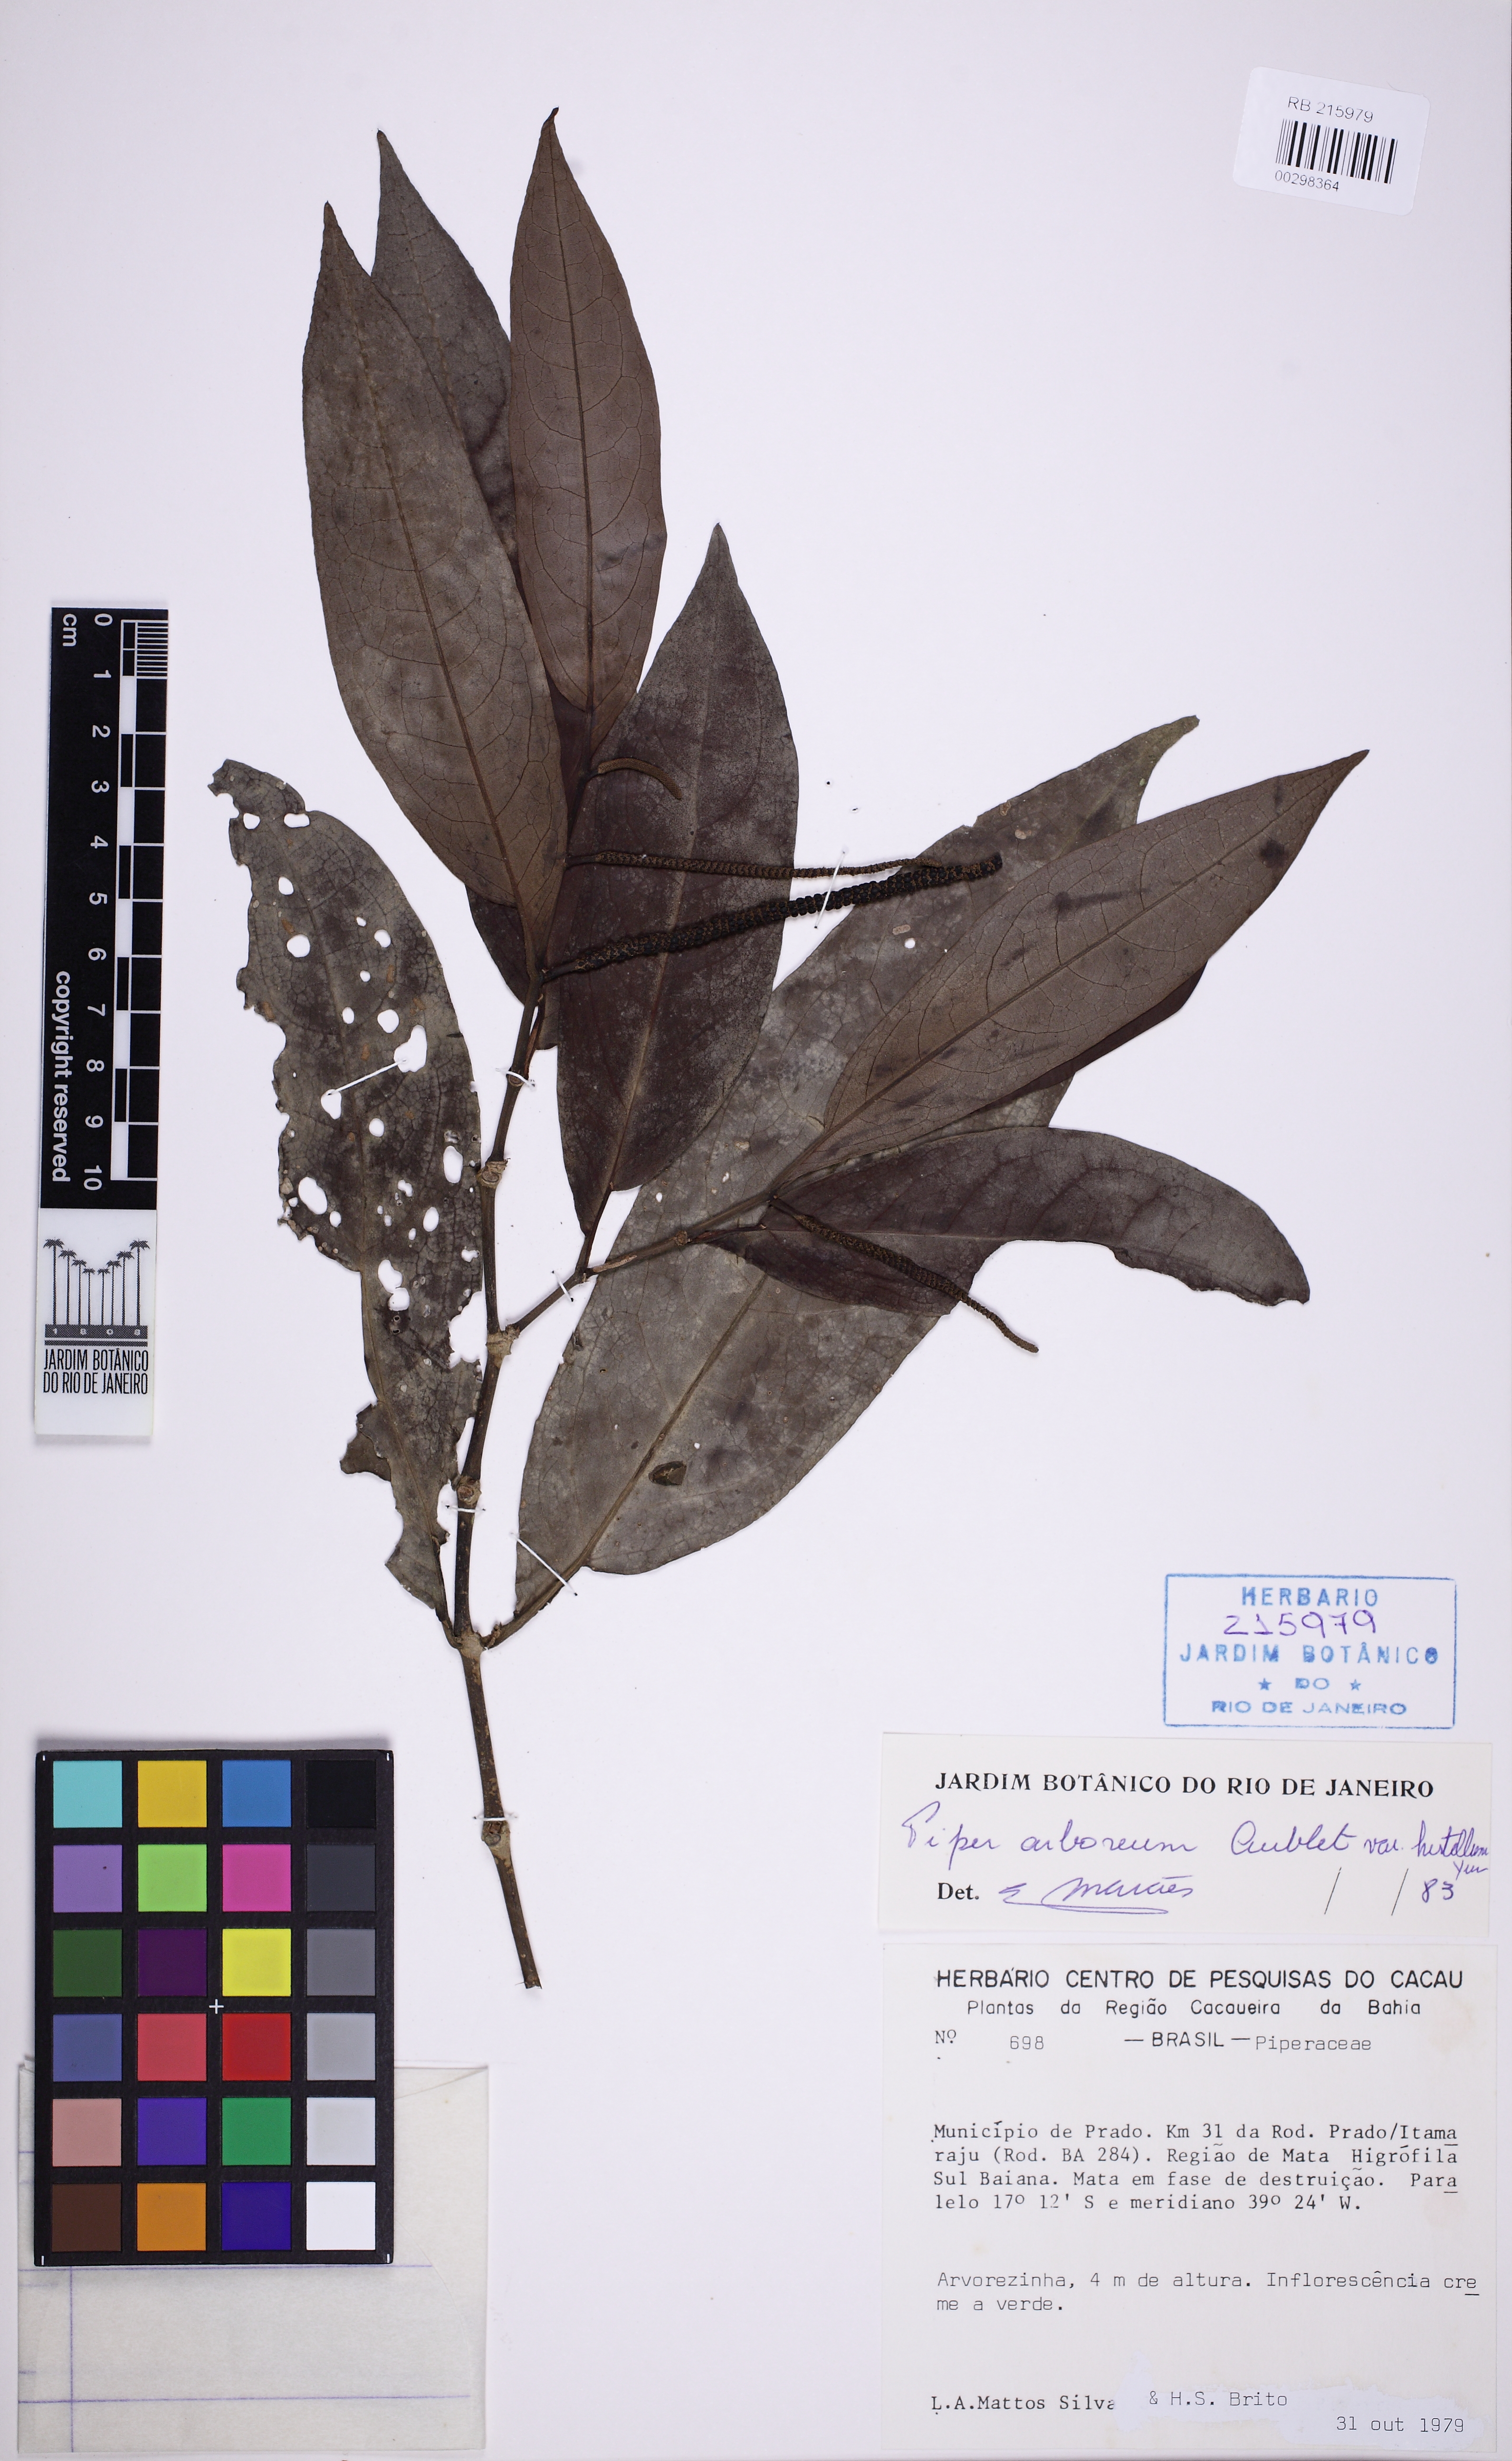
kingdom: Plantae
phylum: Tracheophyta
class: Magnoliopsida
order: Piperales
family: Piperaceae
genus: Piper
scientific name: Piper arboreum
